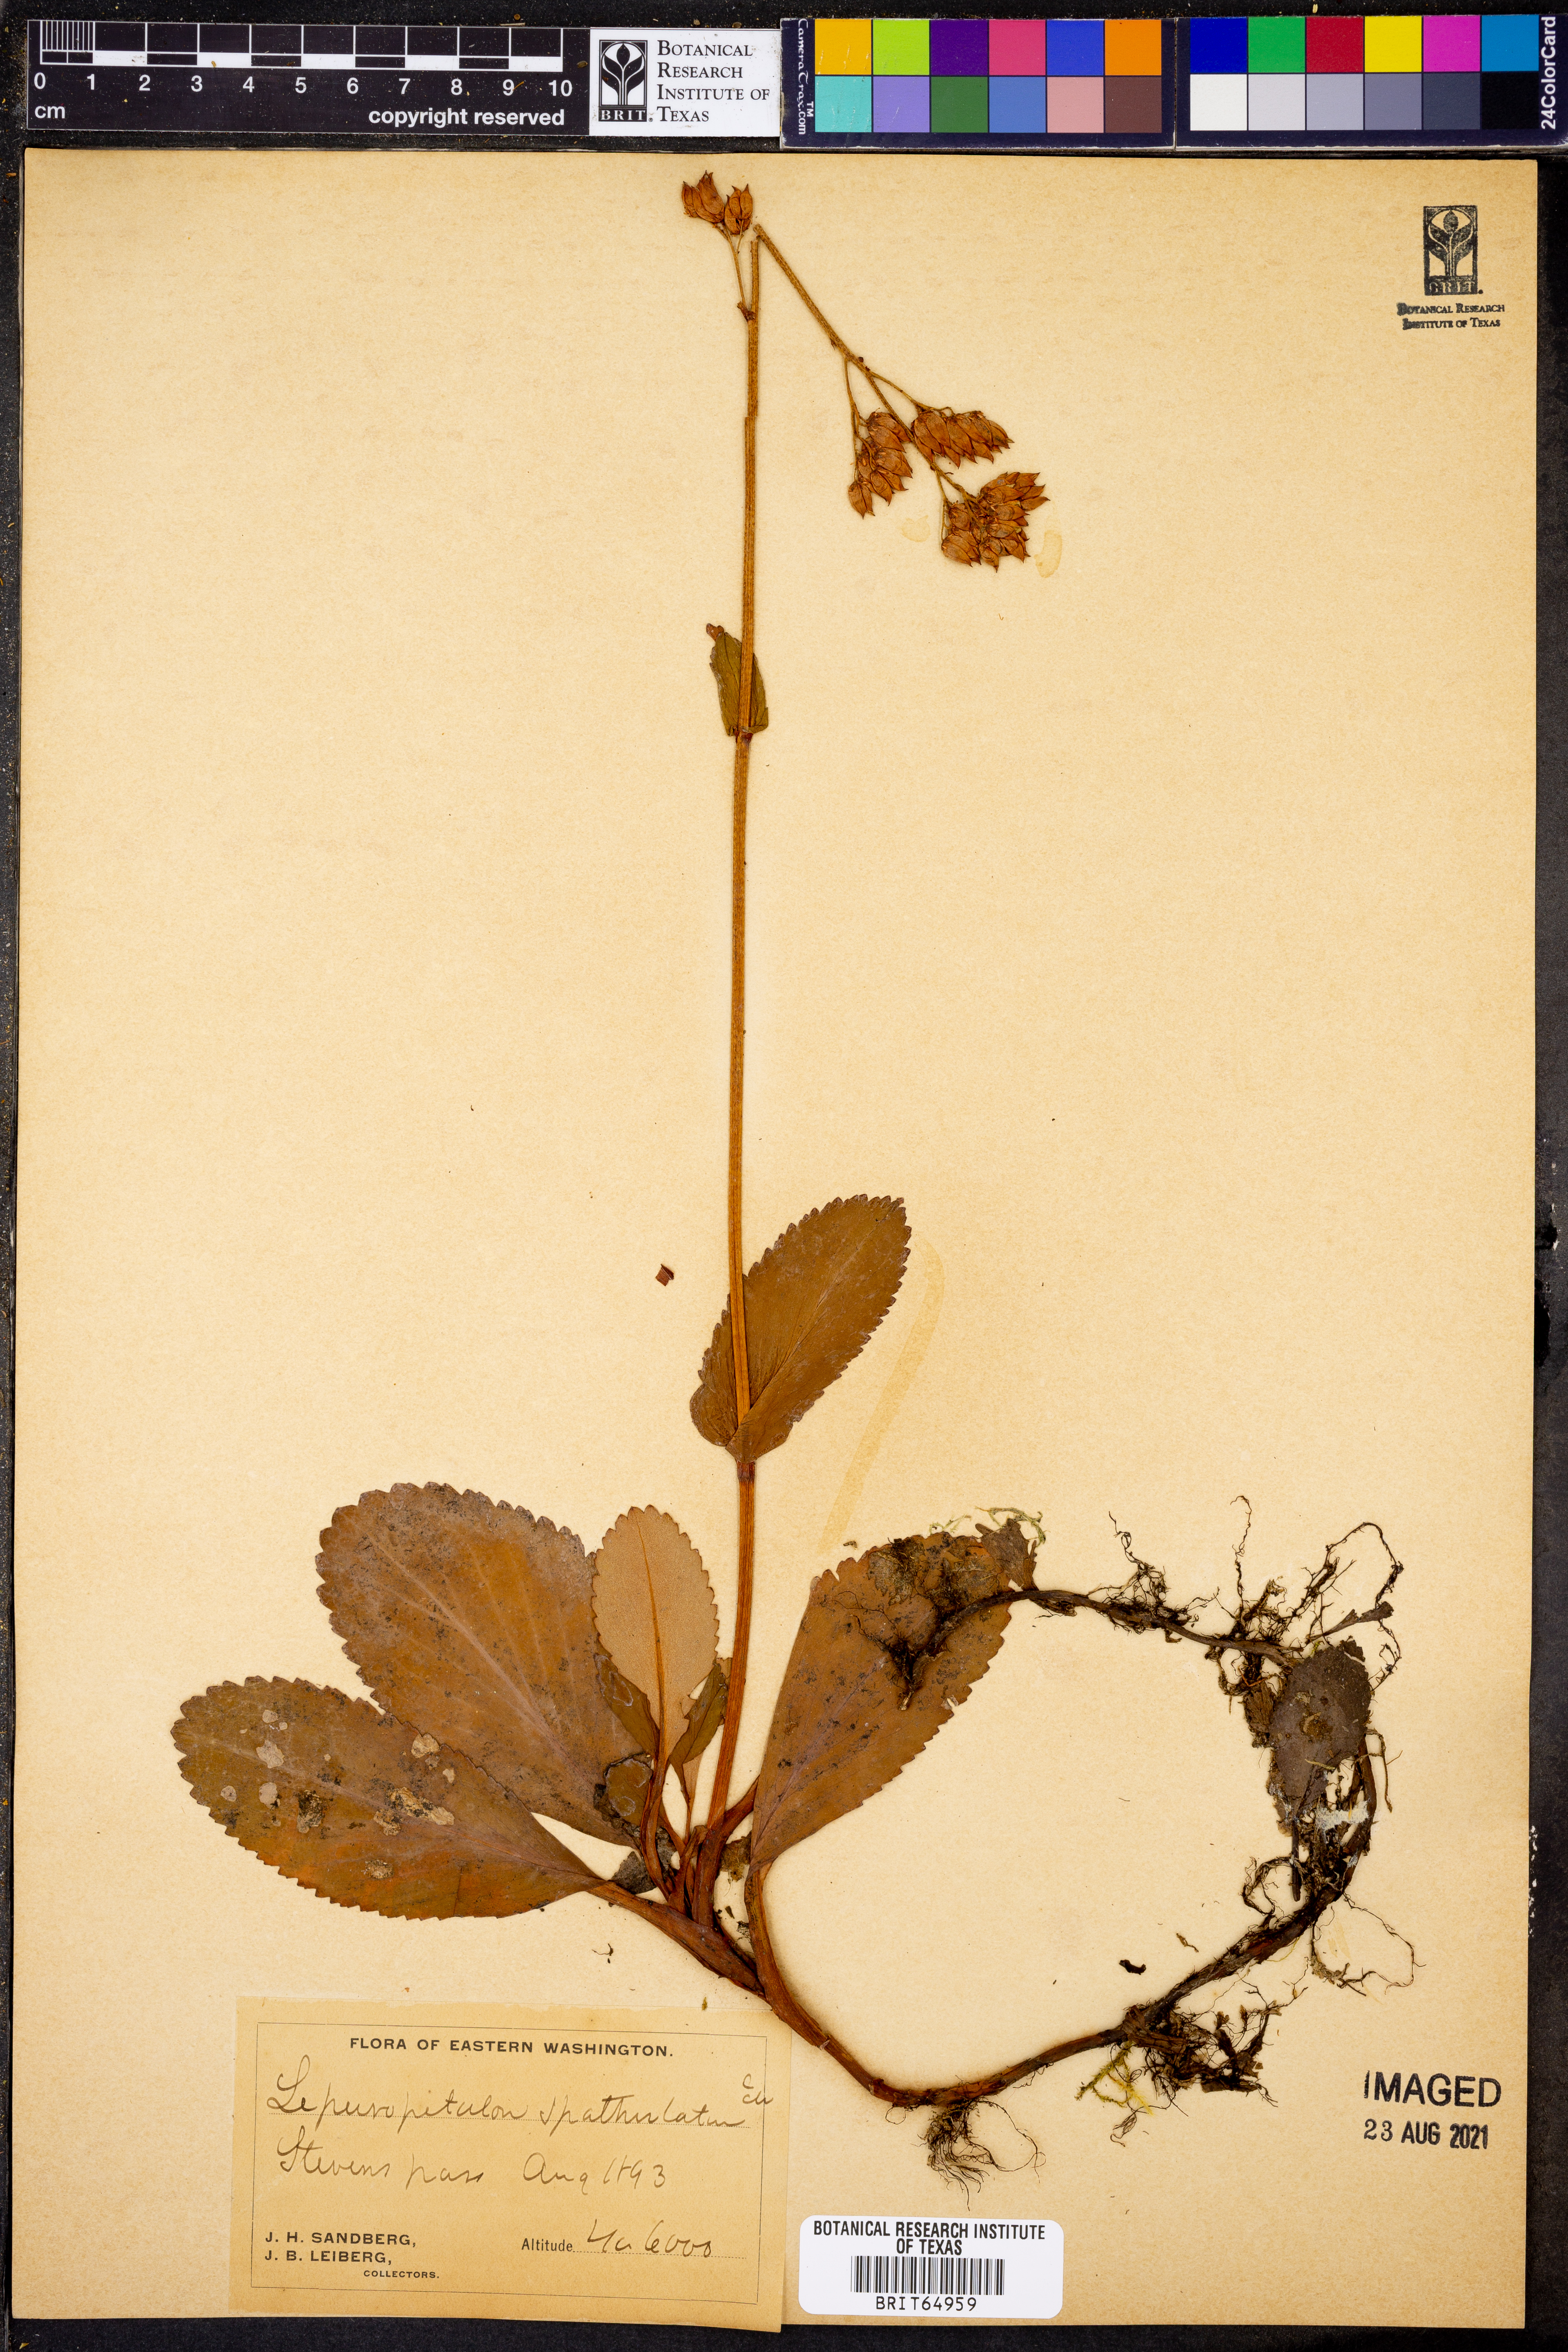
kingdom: Plantae
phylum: Tracheophyta
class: Magnoliopsida
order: Celastrales
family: Parnassiaceae
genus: Lepuropetalon
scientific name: Lepuropetalon
